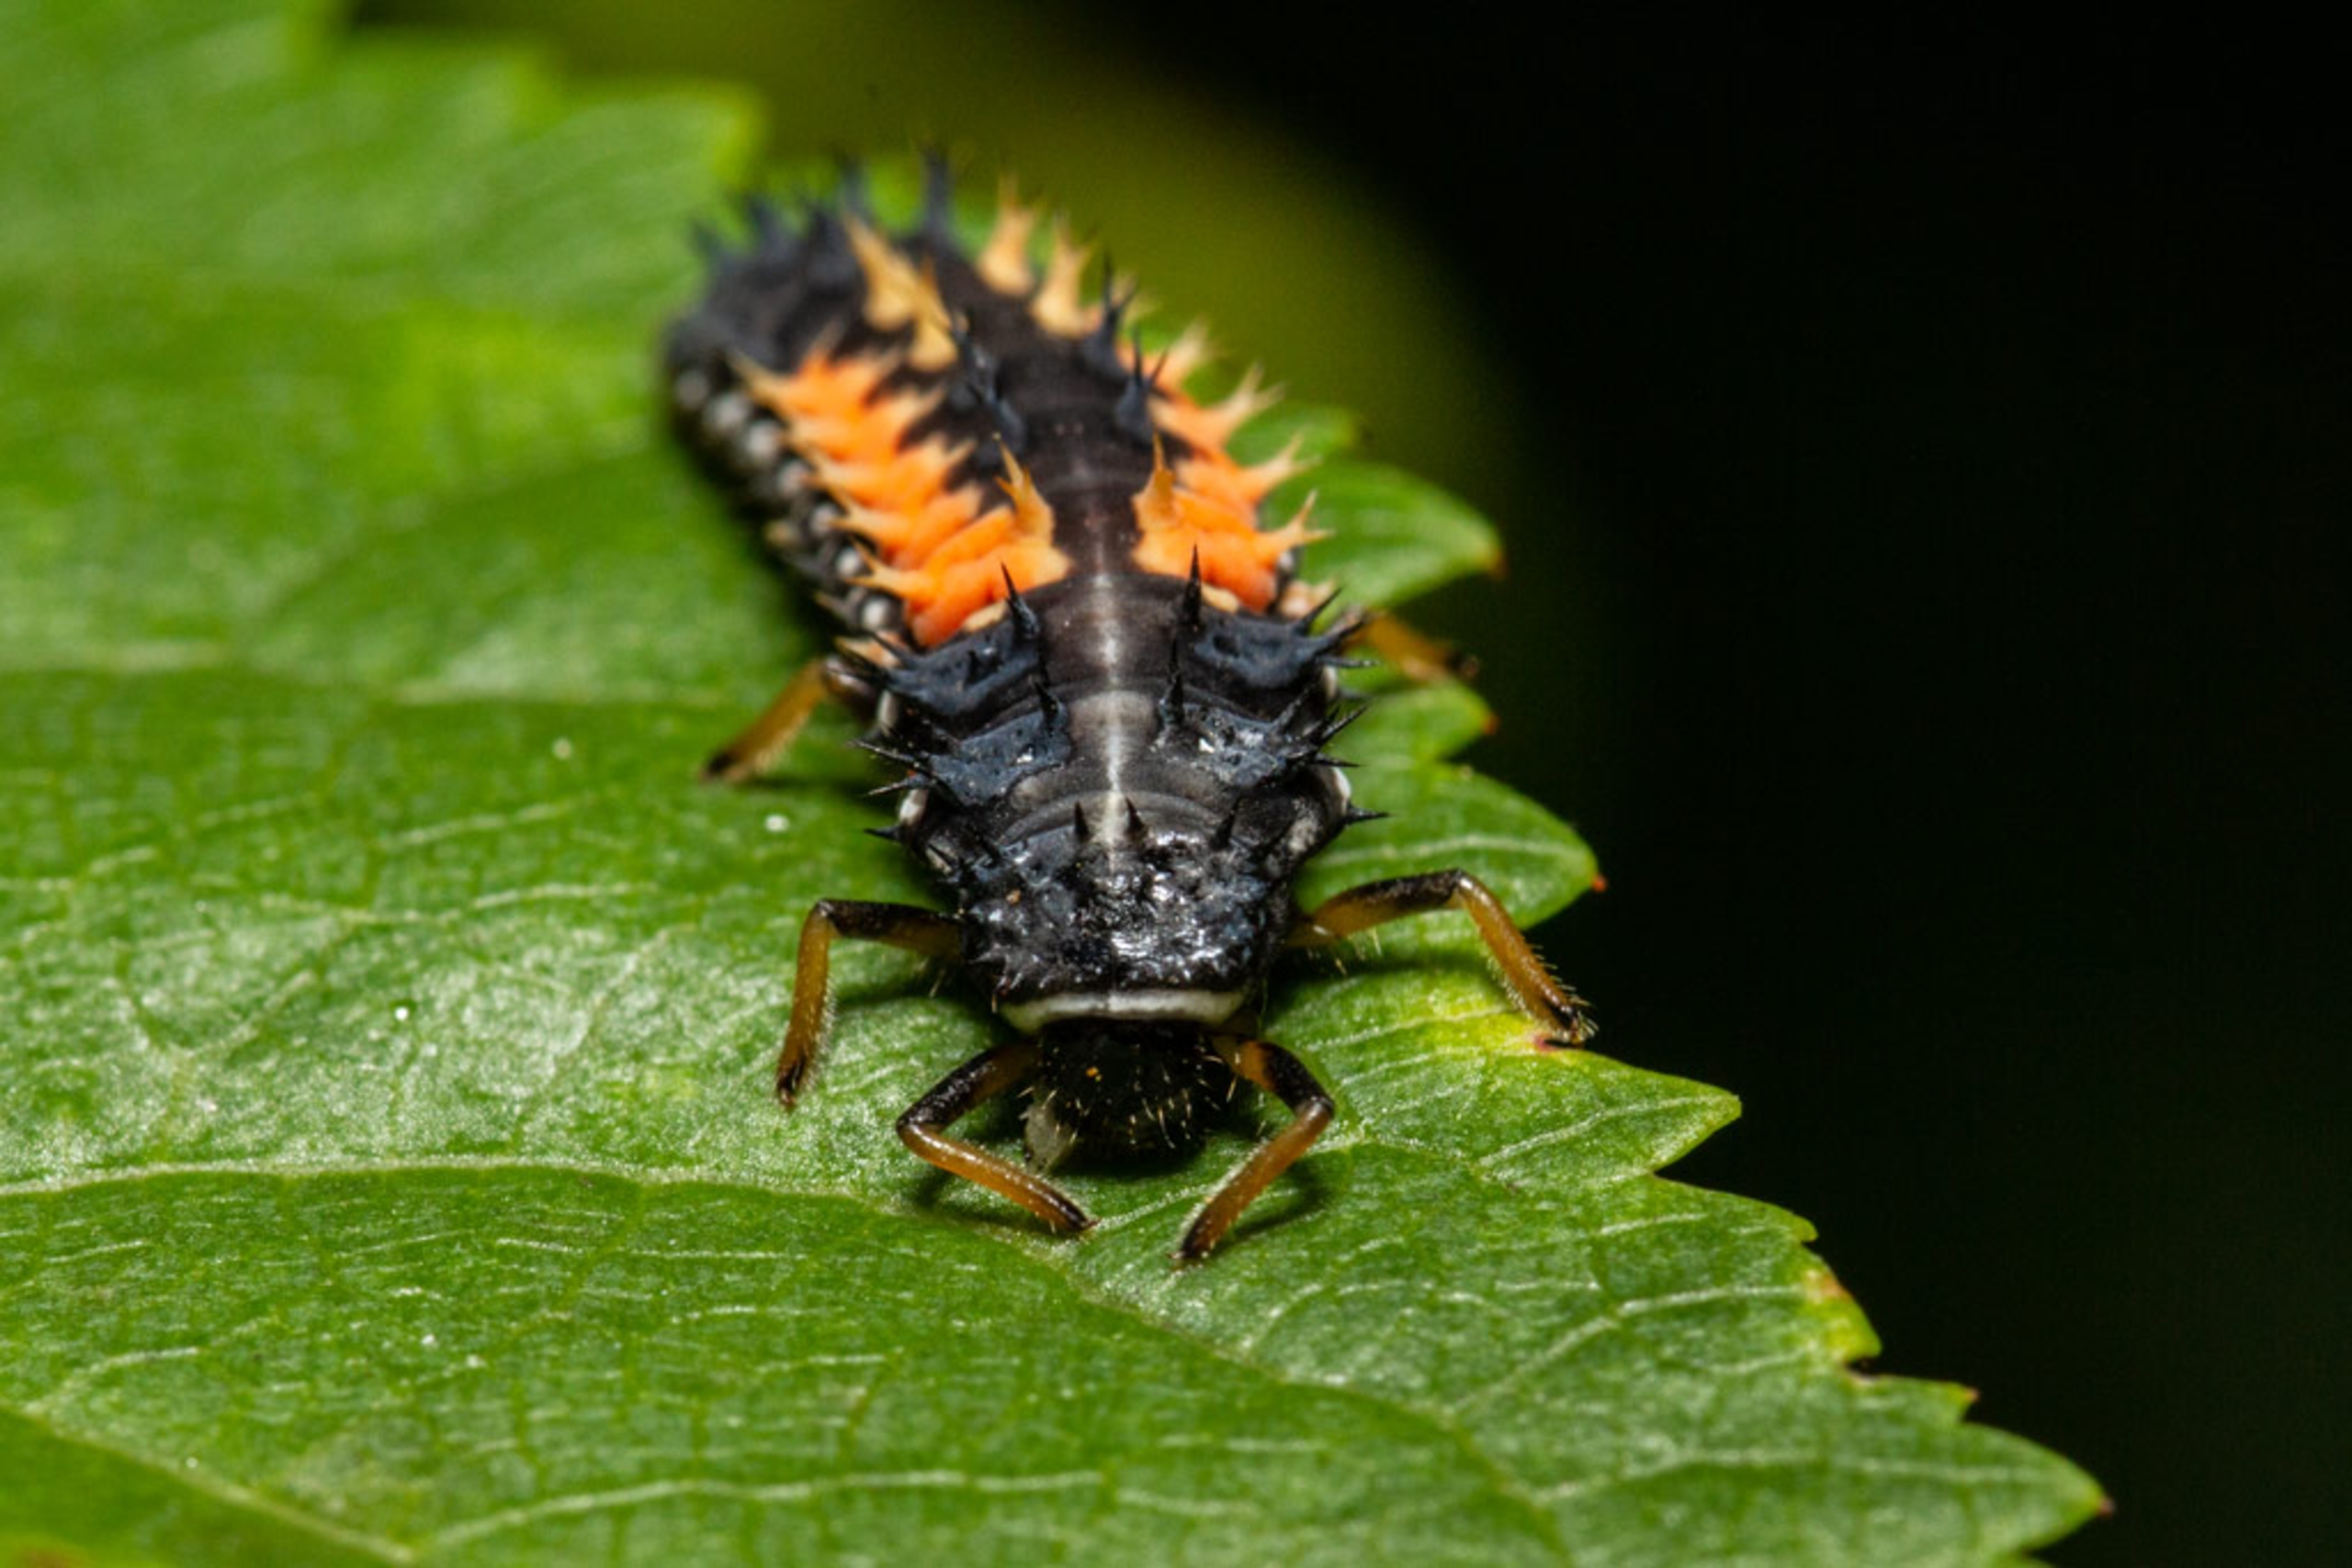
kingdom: Animalia
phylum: Arthropoda
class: Insecta
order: Coleoptera
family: Coccinellidae
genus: Harmonia
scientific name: Harmonia axyridis
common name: Harlekinmariehøne
